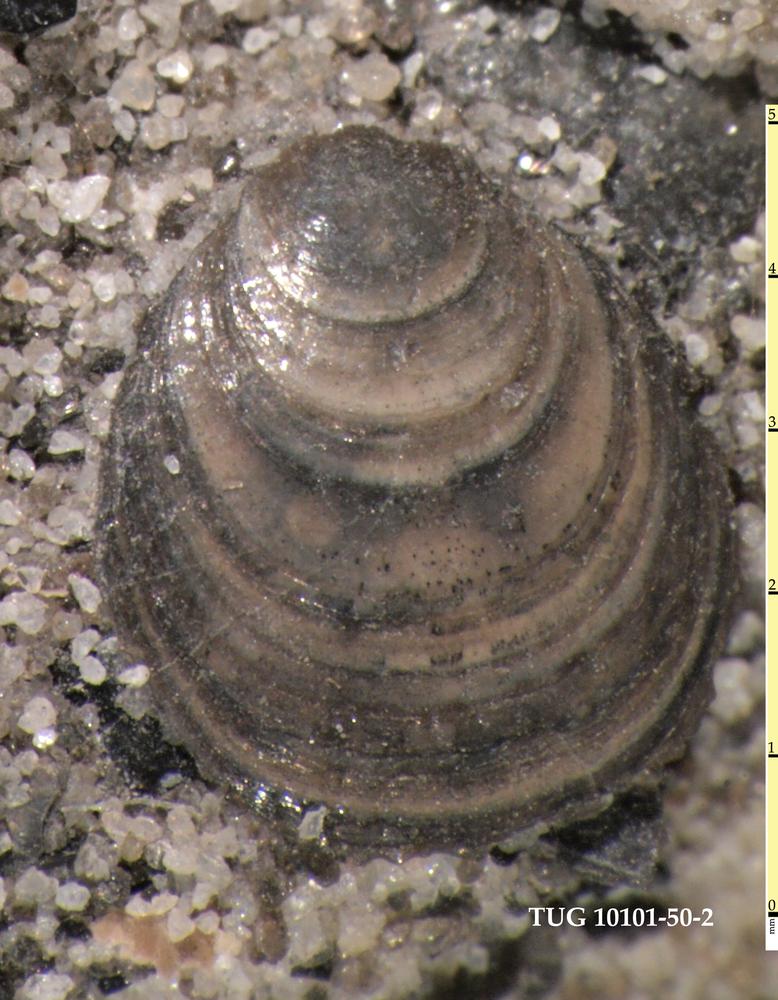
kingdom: Animalia
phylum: Brachiopoda
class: Lingulata
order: Lingulida
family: Obolidae
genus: Schmidtites
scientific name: Schmidtites Schmidtia celata
